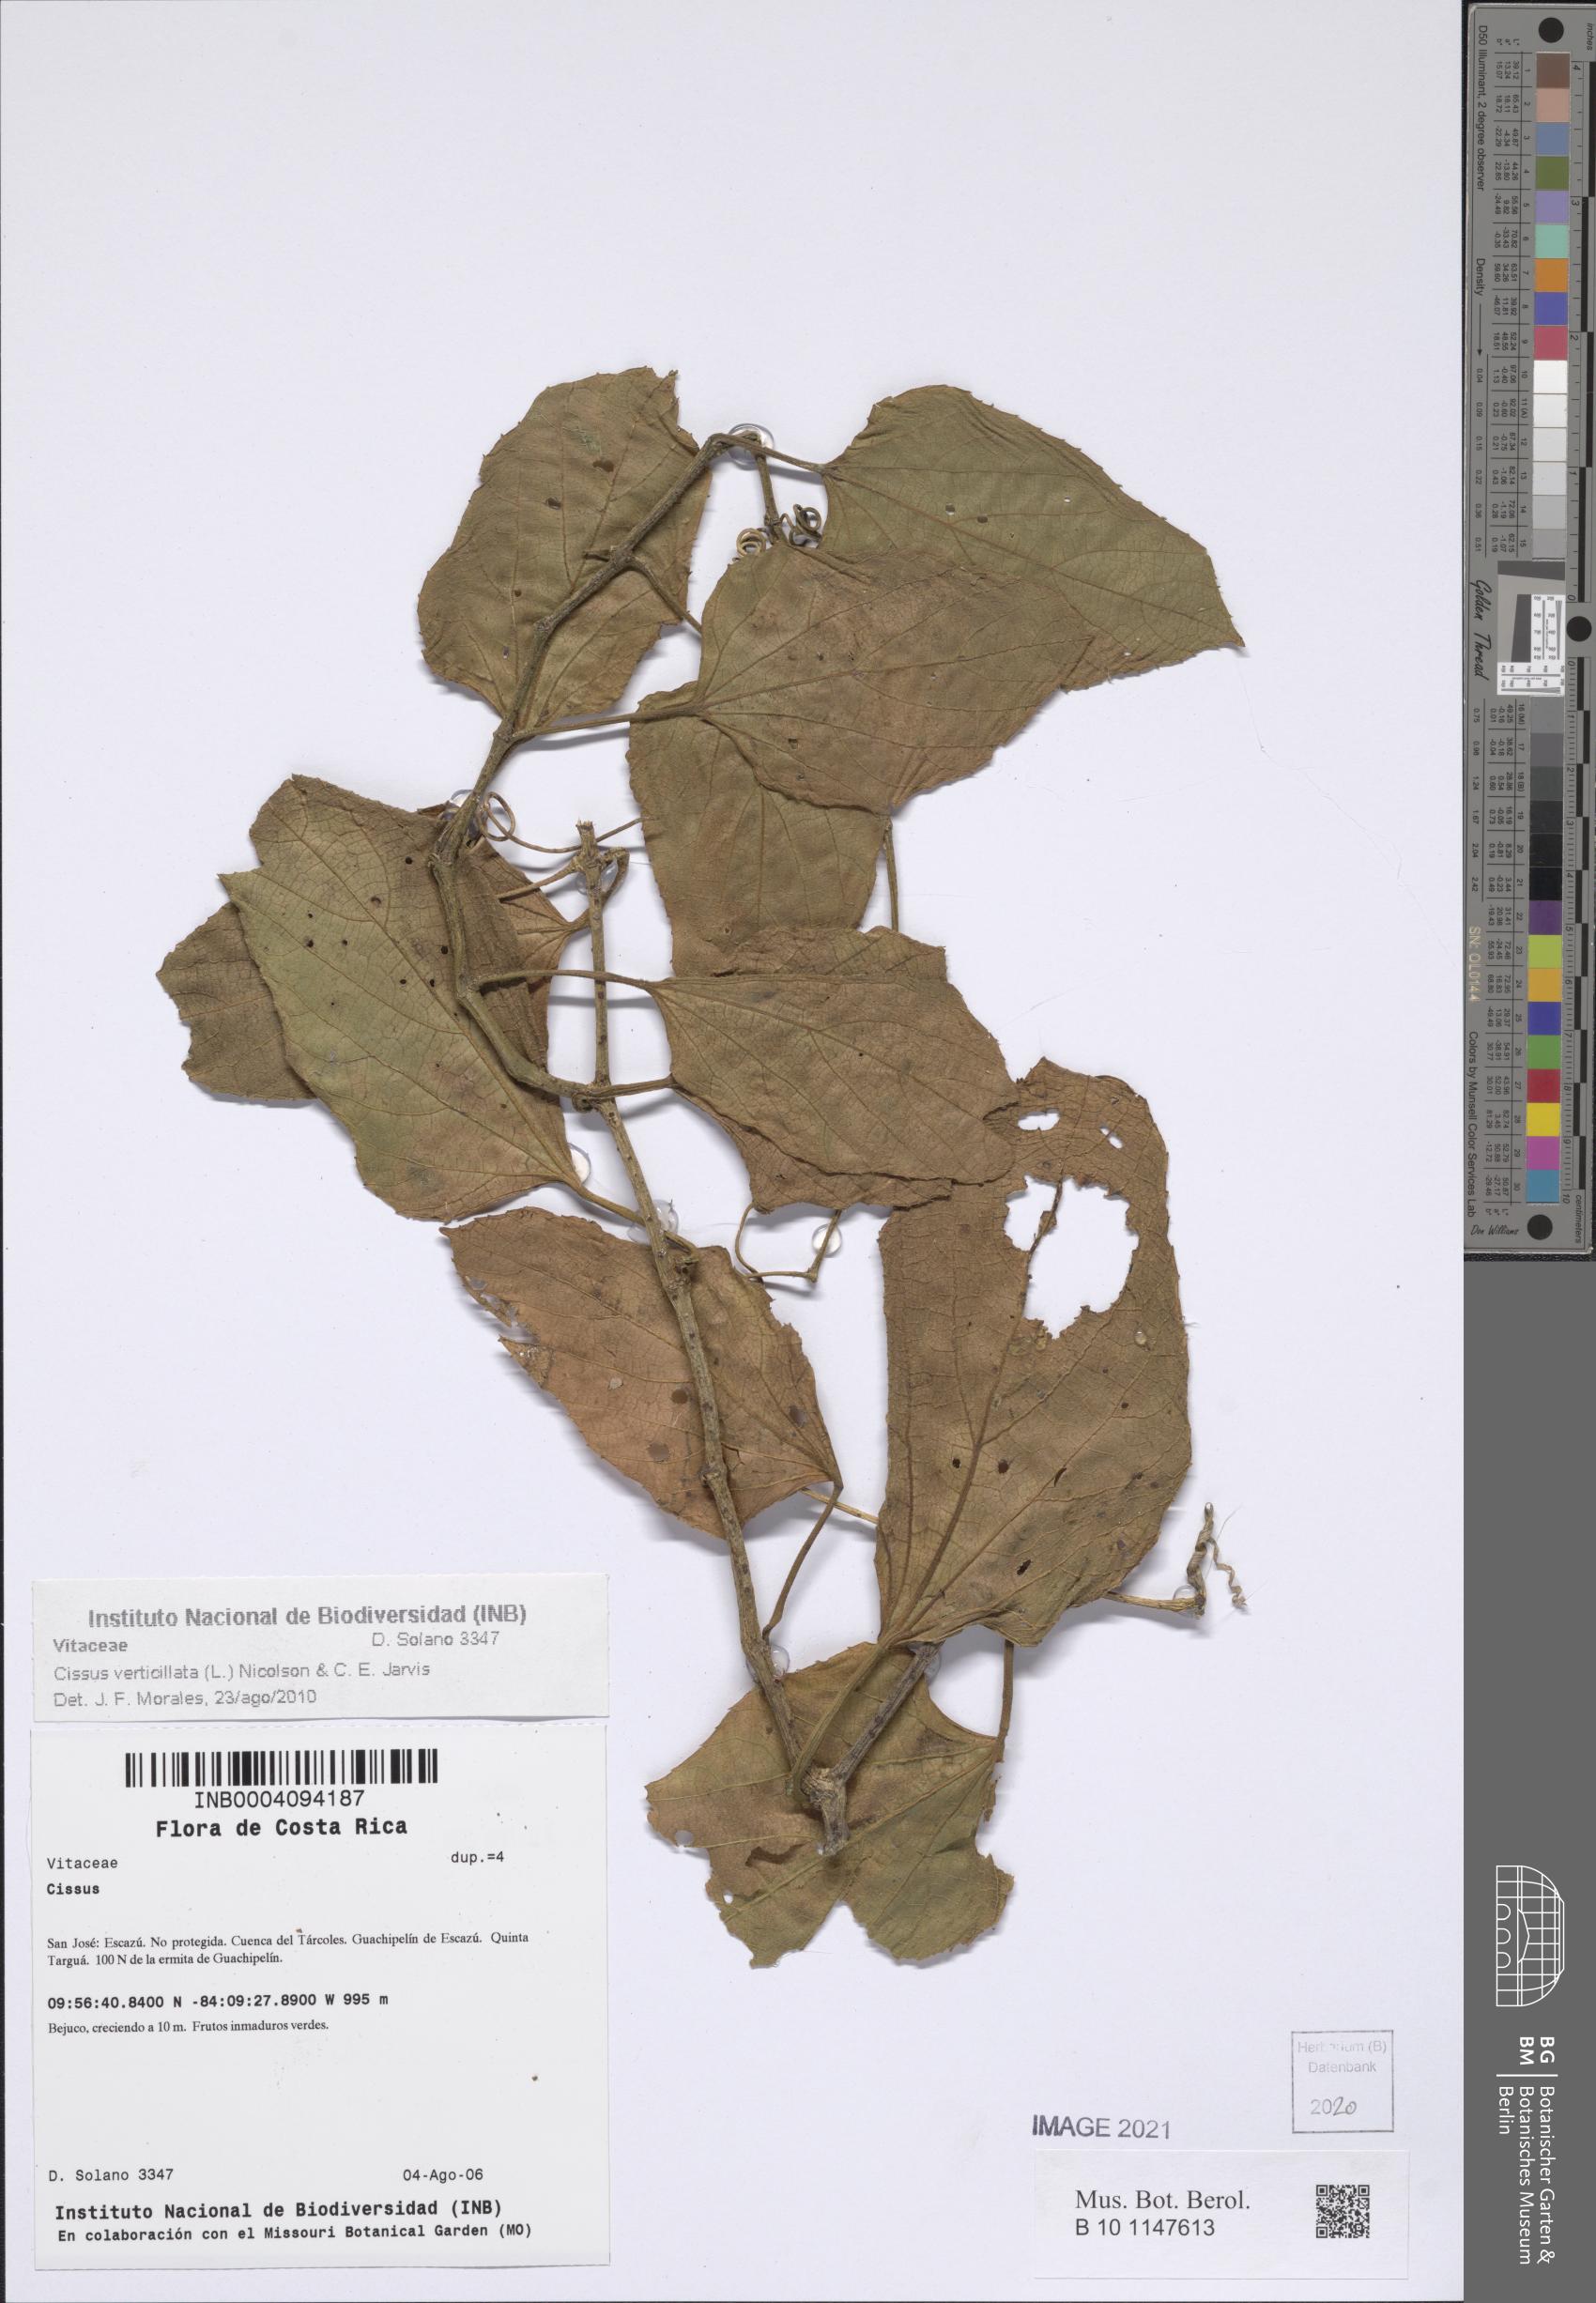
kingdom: Plantae
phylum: Tracheophyta
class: Magnoliopsida
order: Vitales
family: Vitaceae
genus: Cissus
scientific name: Cissus verticillata
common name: Princess vine
